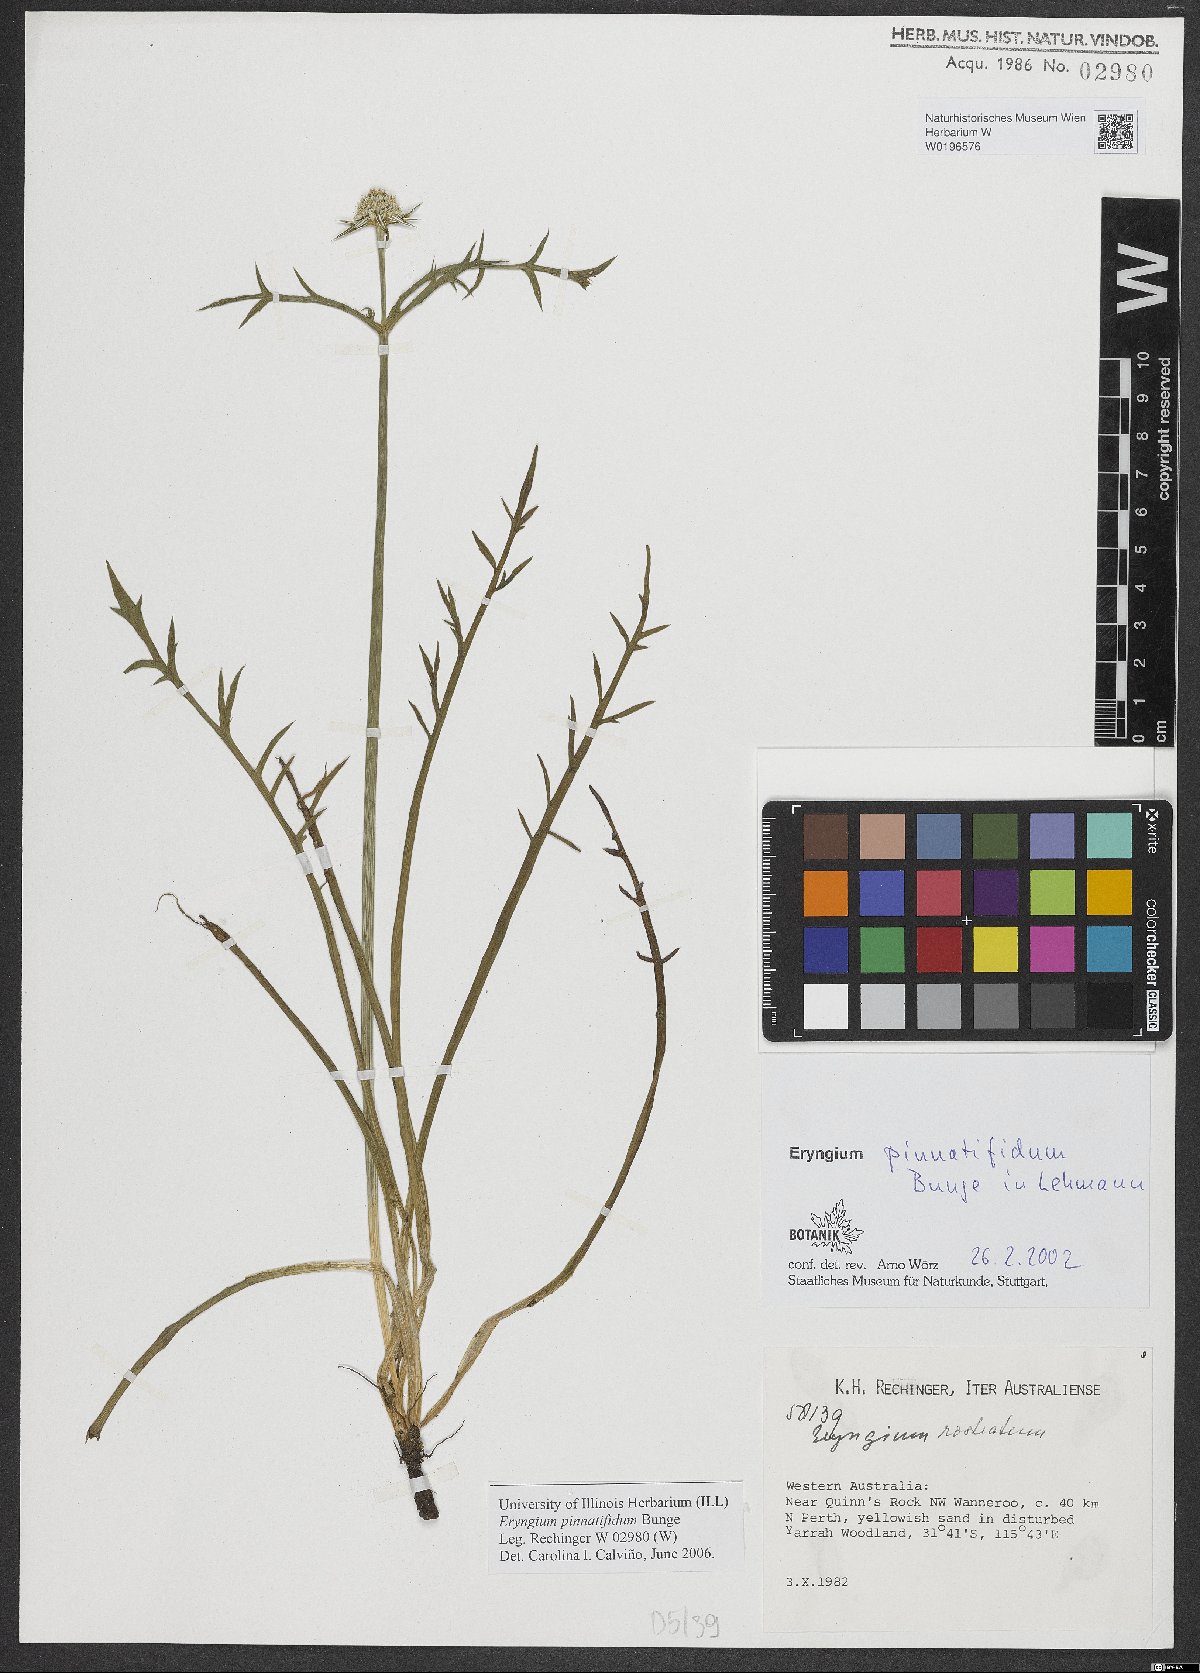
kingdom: Plantae
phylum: Tracheophyta
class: Magnoliopsida
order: Apiales
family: Apiaceae
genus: Eryngium
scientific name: Eryngium pinnatifidum
